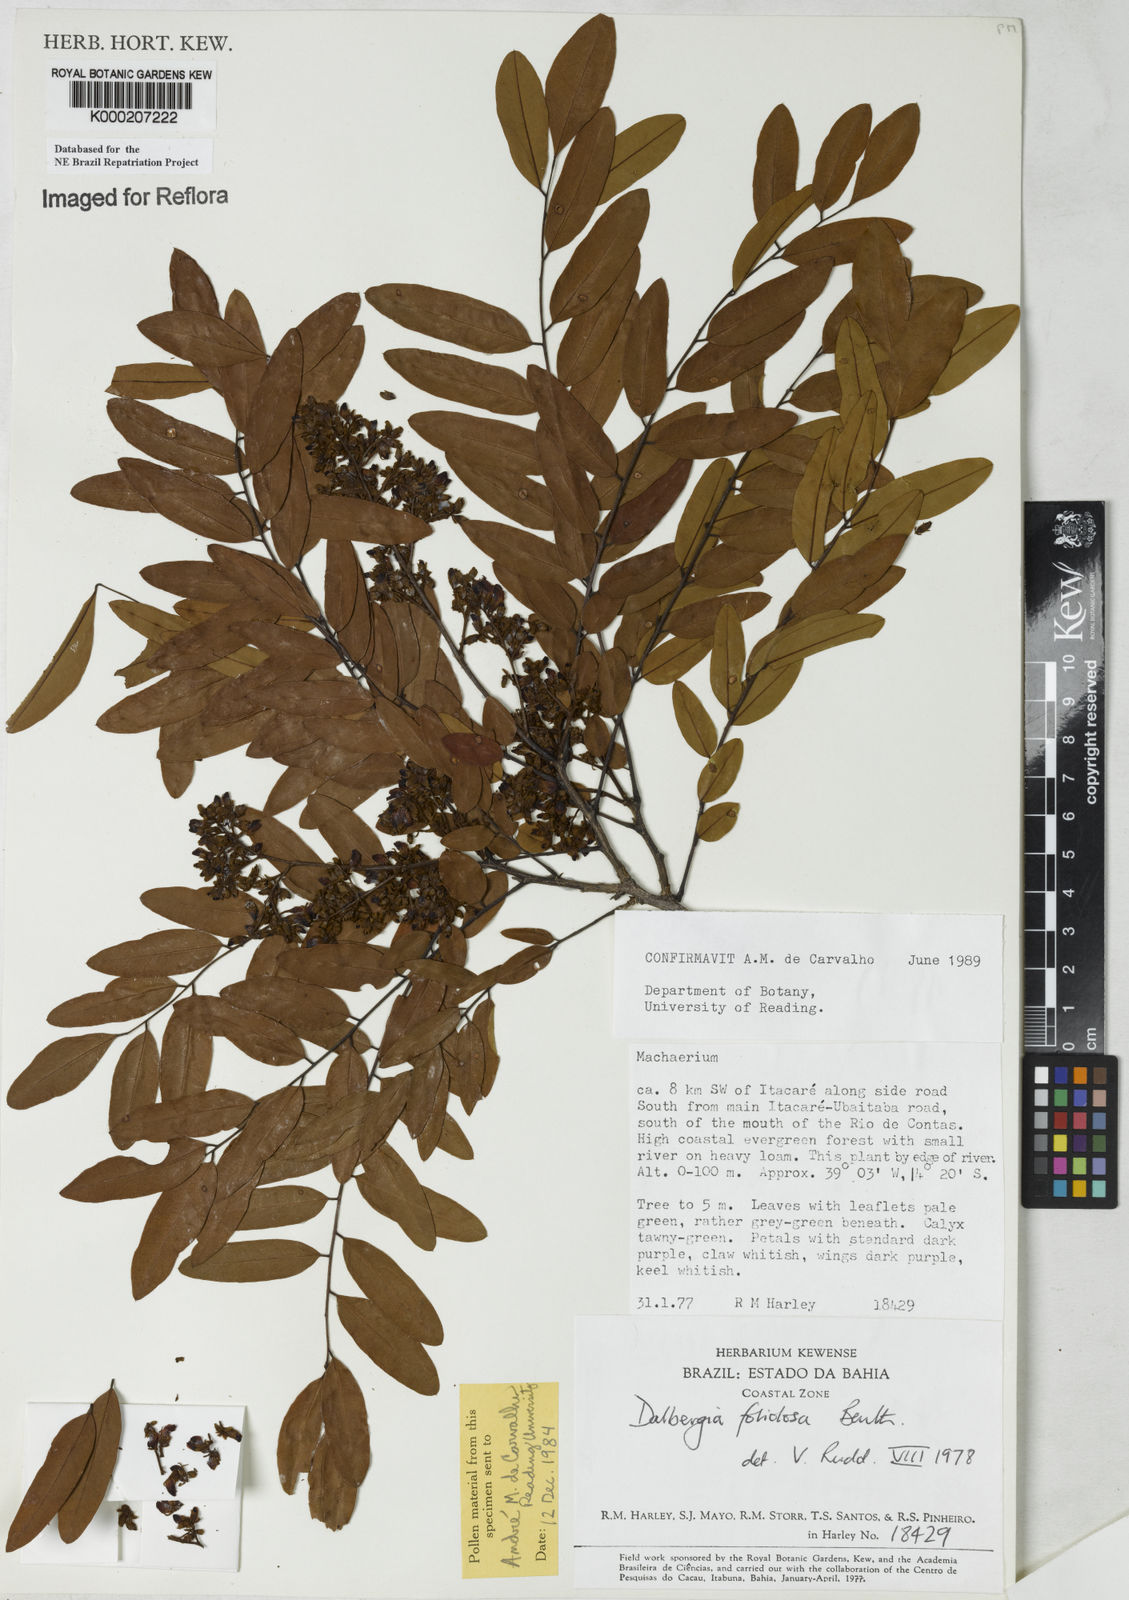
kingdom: Plantae
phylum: Tracheophyta
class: Magnoliopsida
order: Fabales
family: Fabaceae
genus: Dalbergia
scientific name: Dalbergia foliolosa
